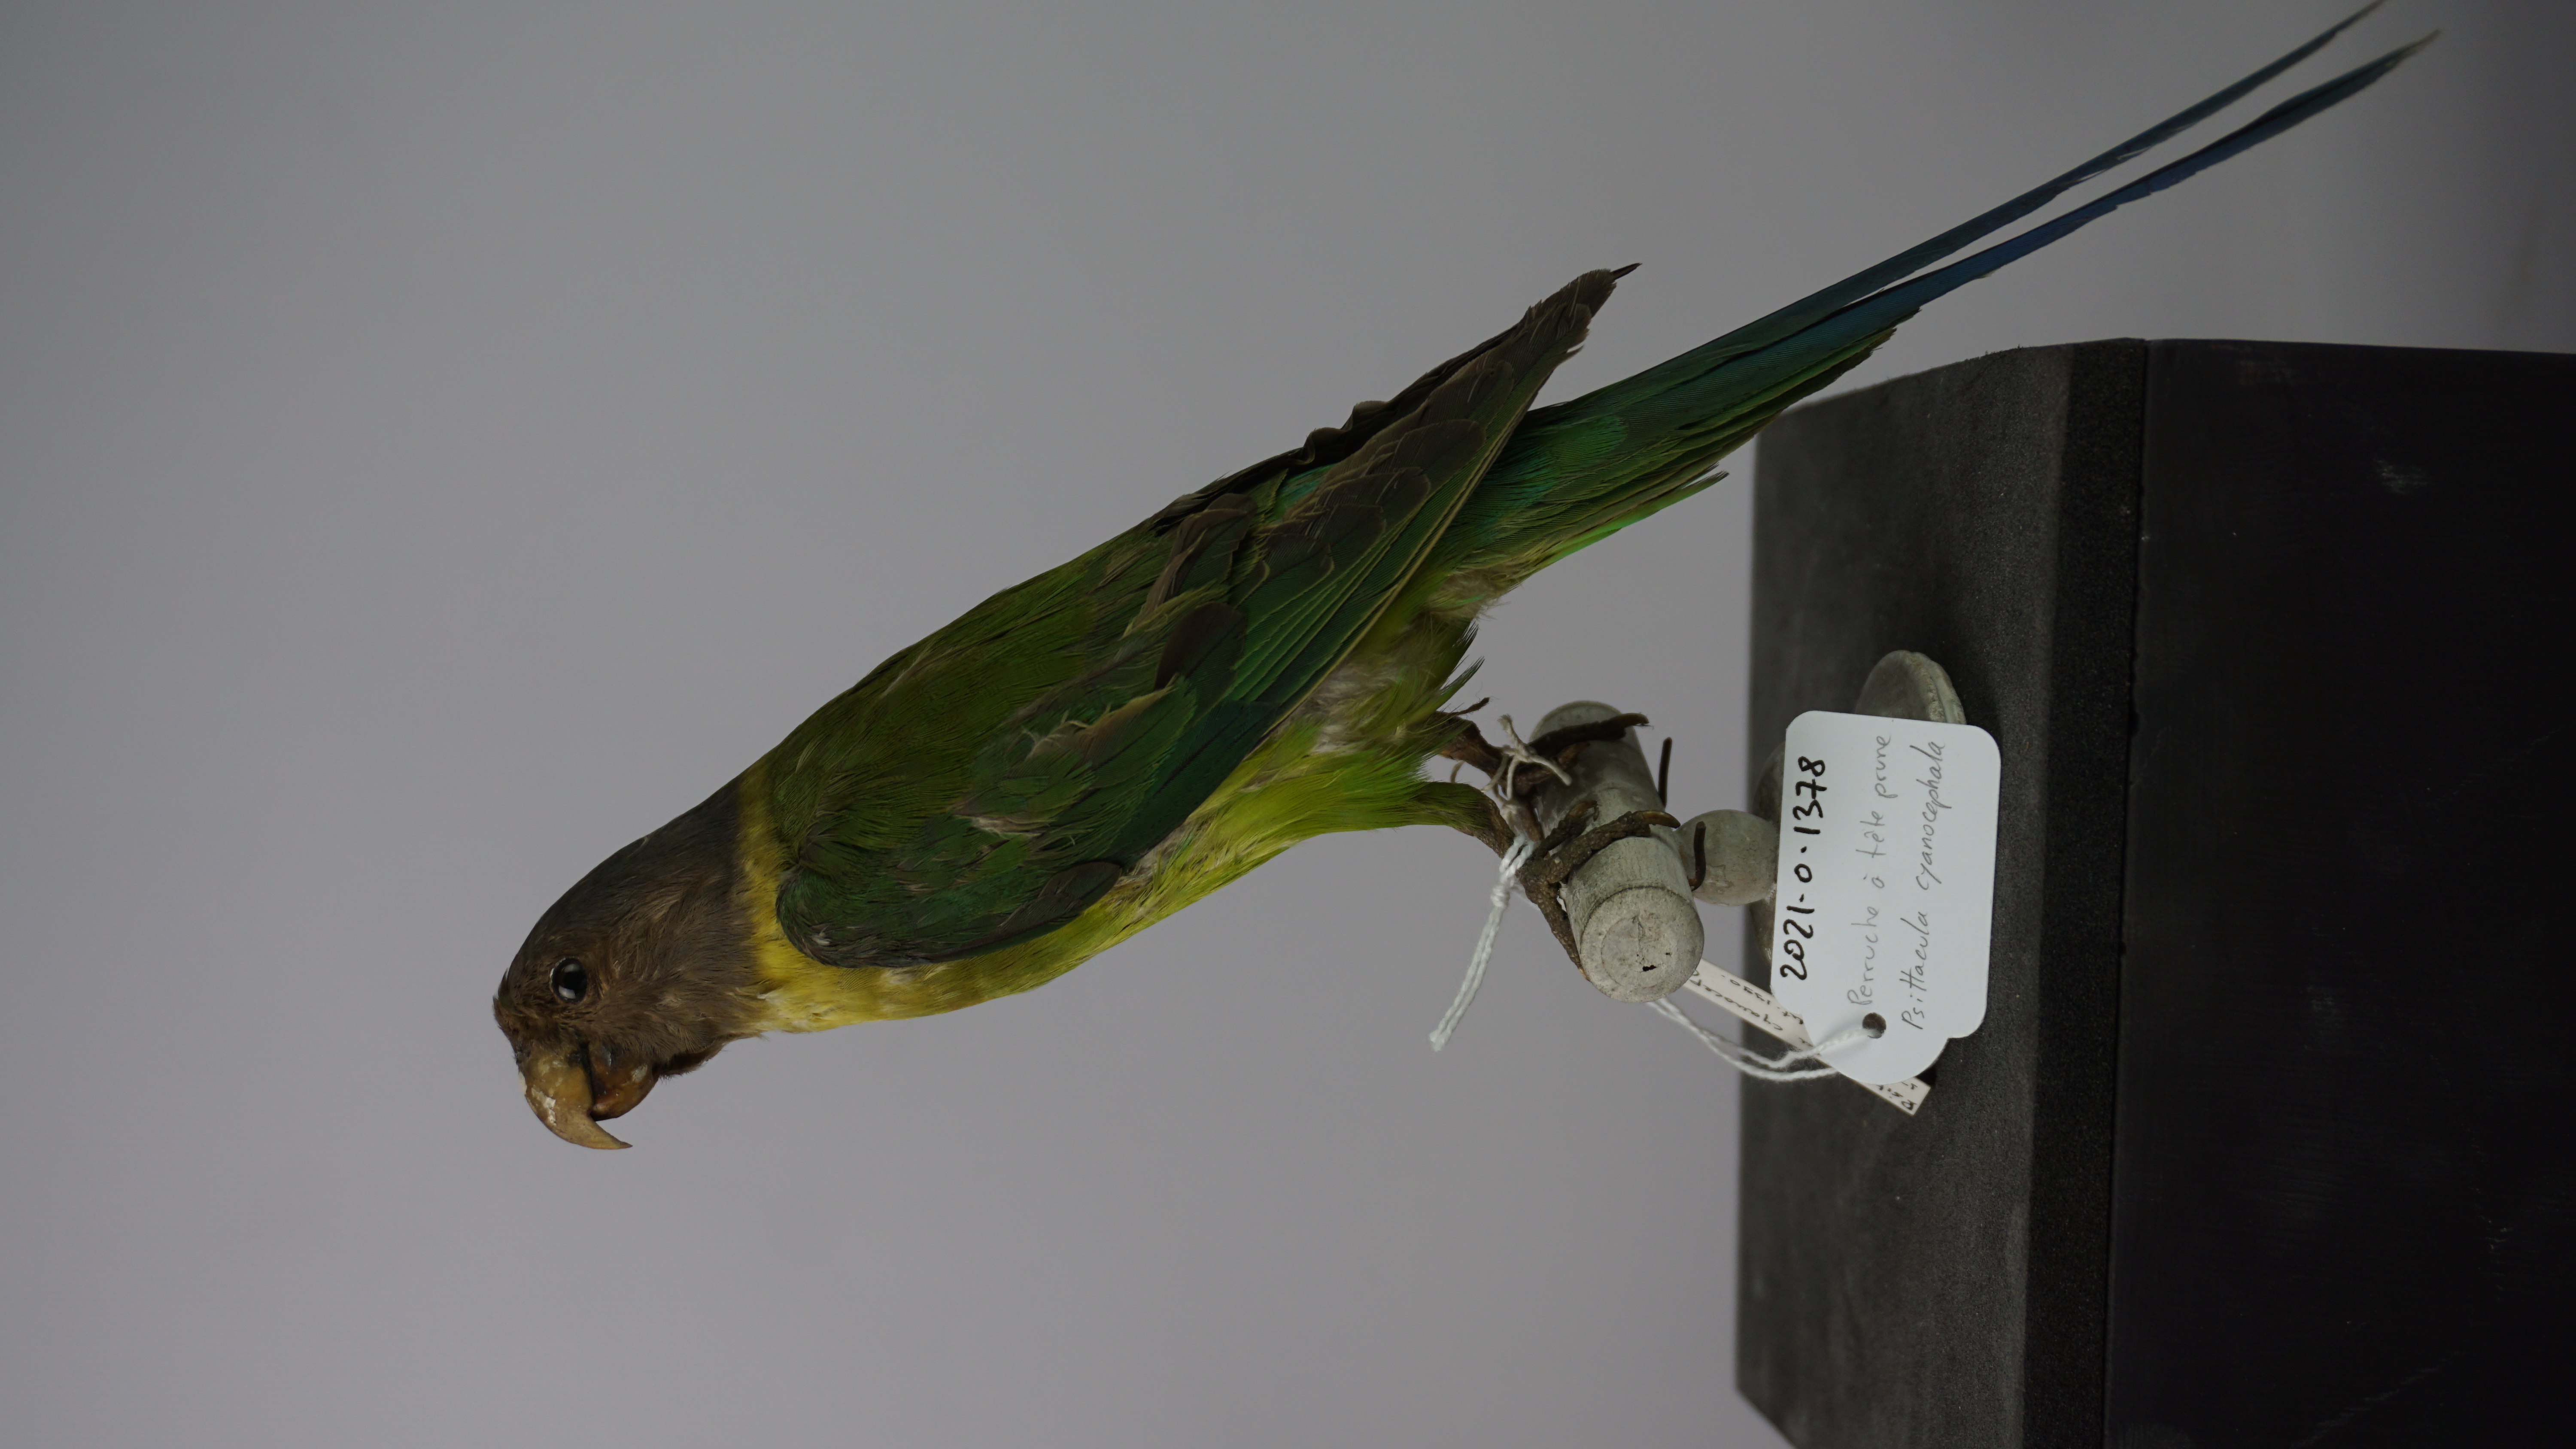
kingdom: Animalia
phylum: Chordata
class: Aves
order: Psittaciformes
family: Psittacidae
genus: Psittacula
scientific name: Psittacula cyanocephala
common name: Plum-headed parakeet
